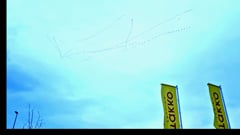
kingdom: Animalia
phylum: Chordata
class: Aves
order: Gruiformes
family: Gruidae
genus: Grus
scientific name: Grus grus
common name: Common crane
